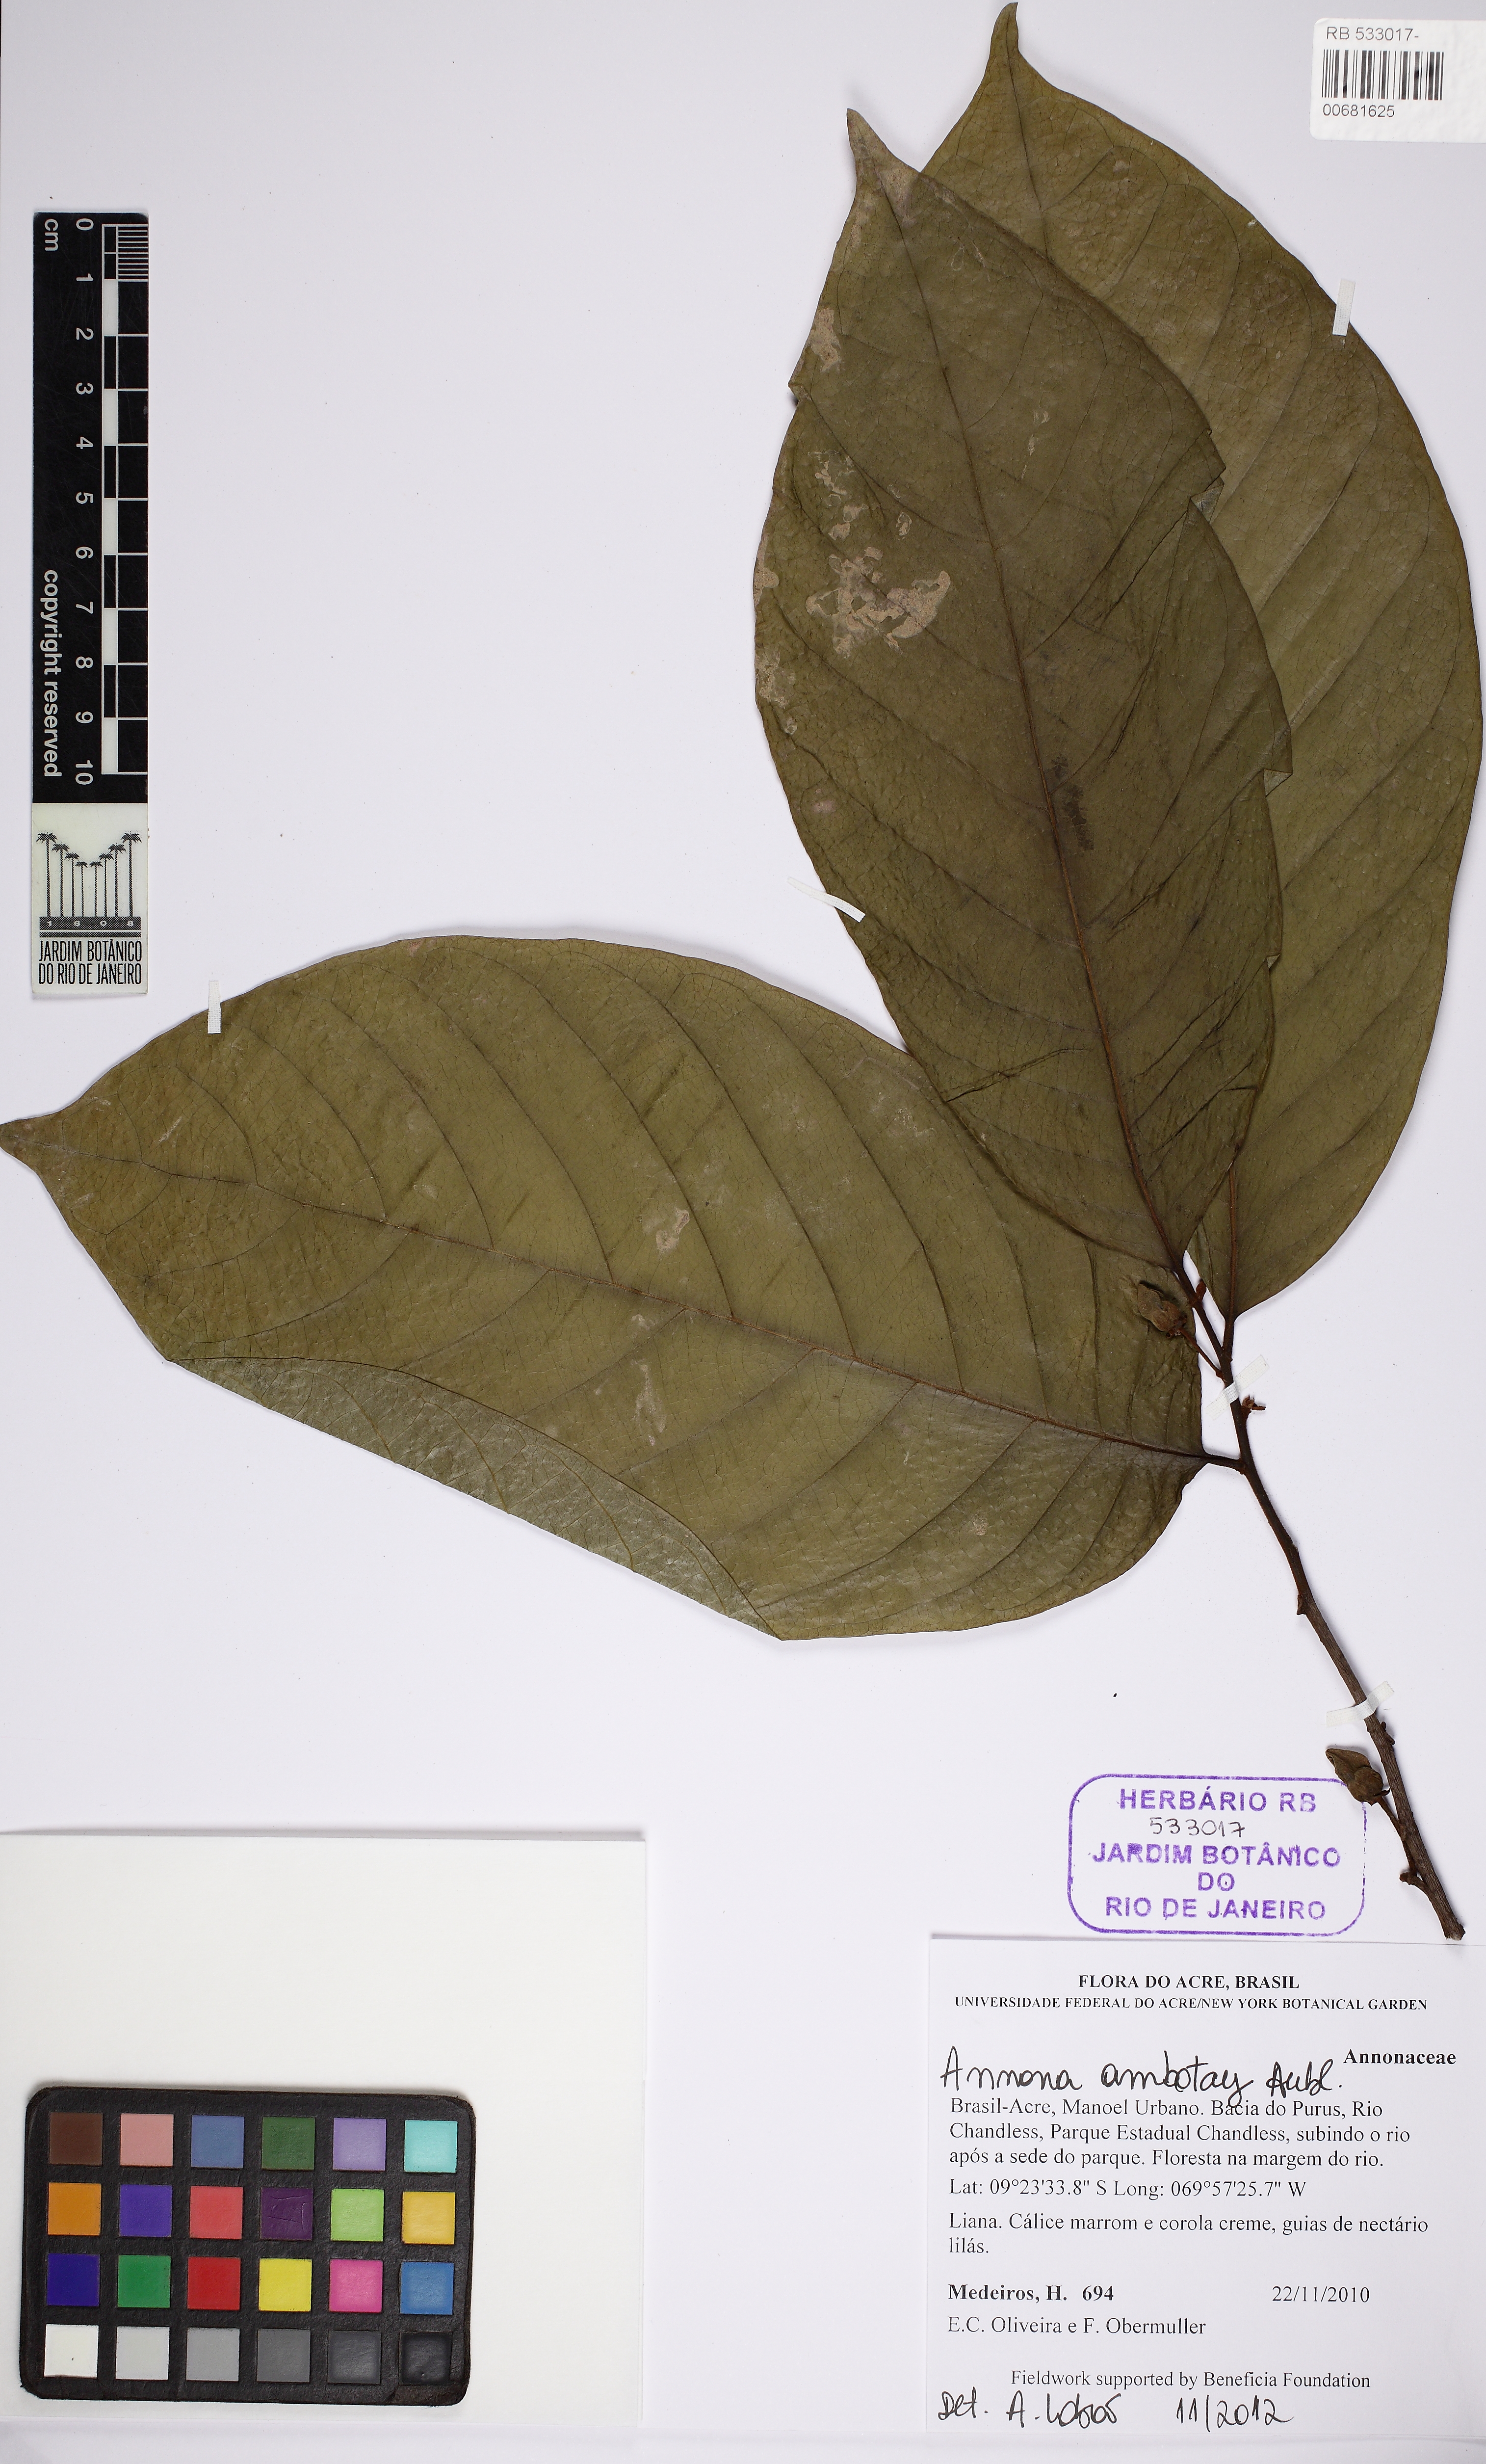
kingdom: Plantae
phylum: Tracheophyta
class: Magnoliopsida
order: Magnoliales
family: Annonaceae
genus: Annona
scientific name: Annona ambotay
